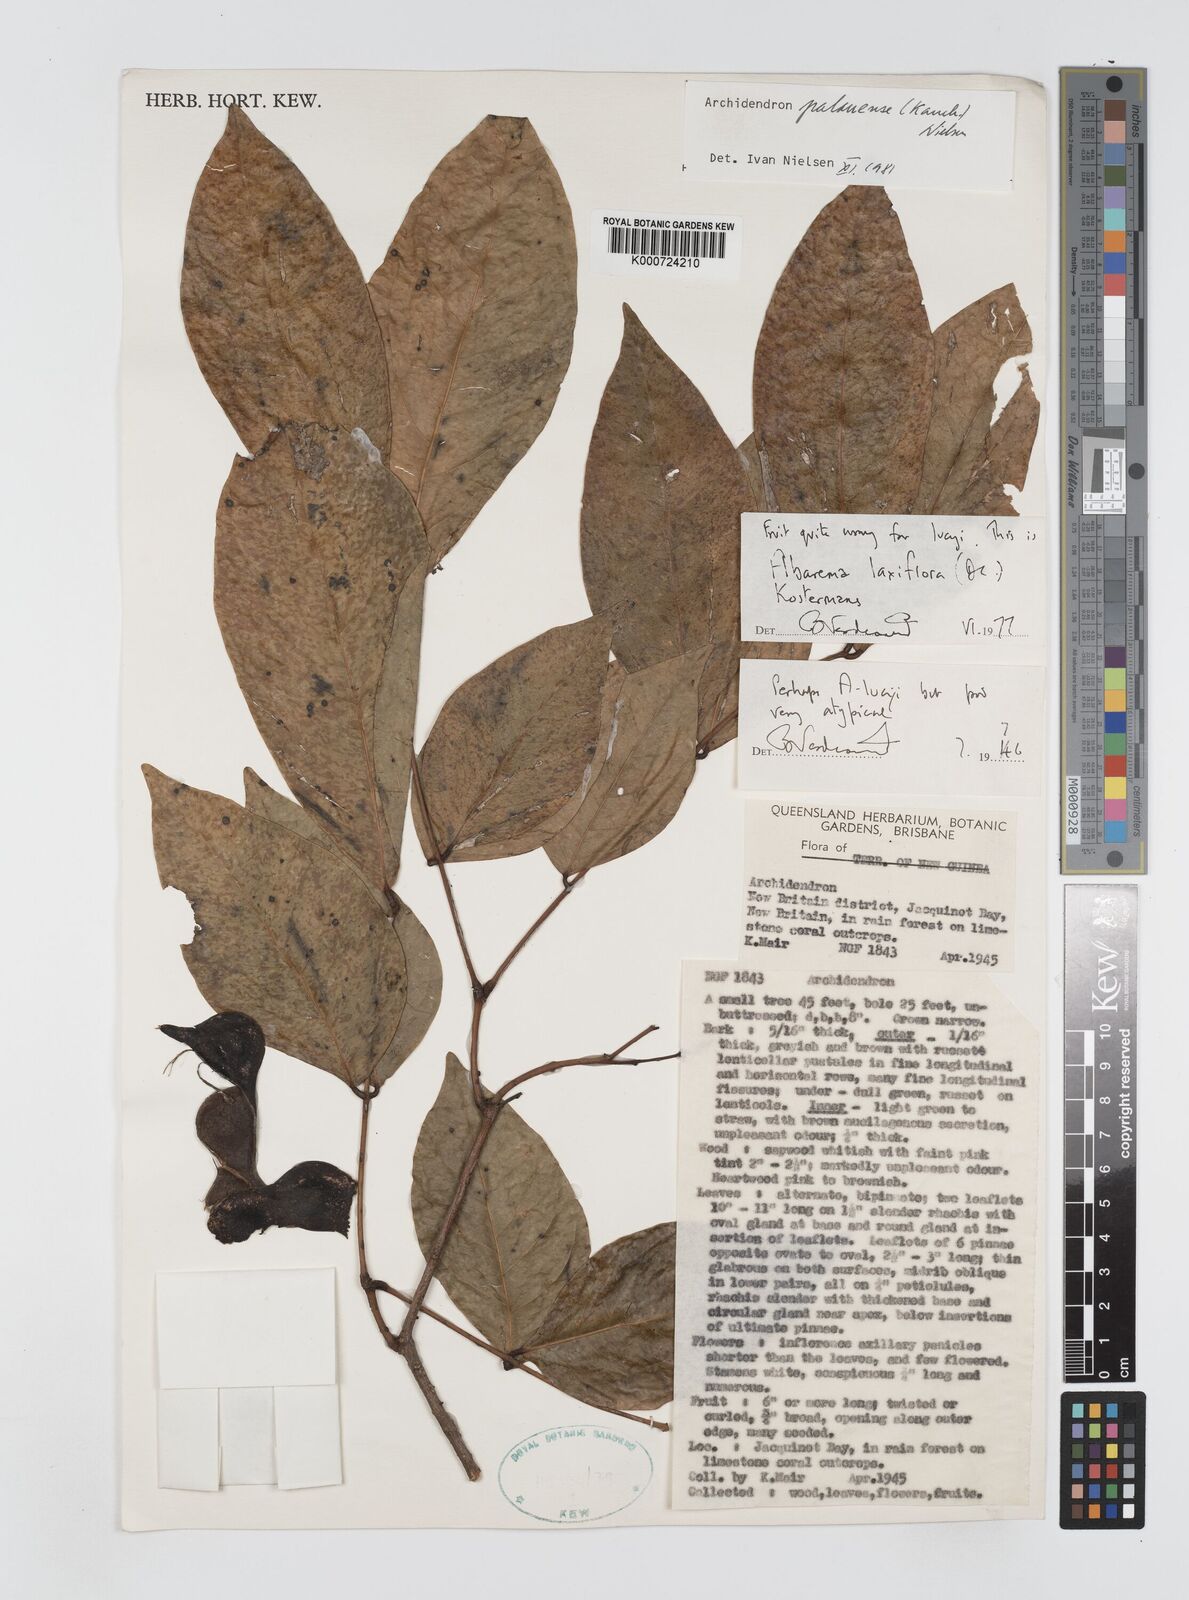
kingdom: Plantae
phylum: Tracheophyta
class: Magnoliopsida
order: Fabales
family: Fabaceae
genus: Archidendron
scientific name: Archidendron palauense
